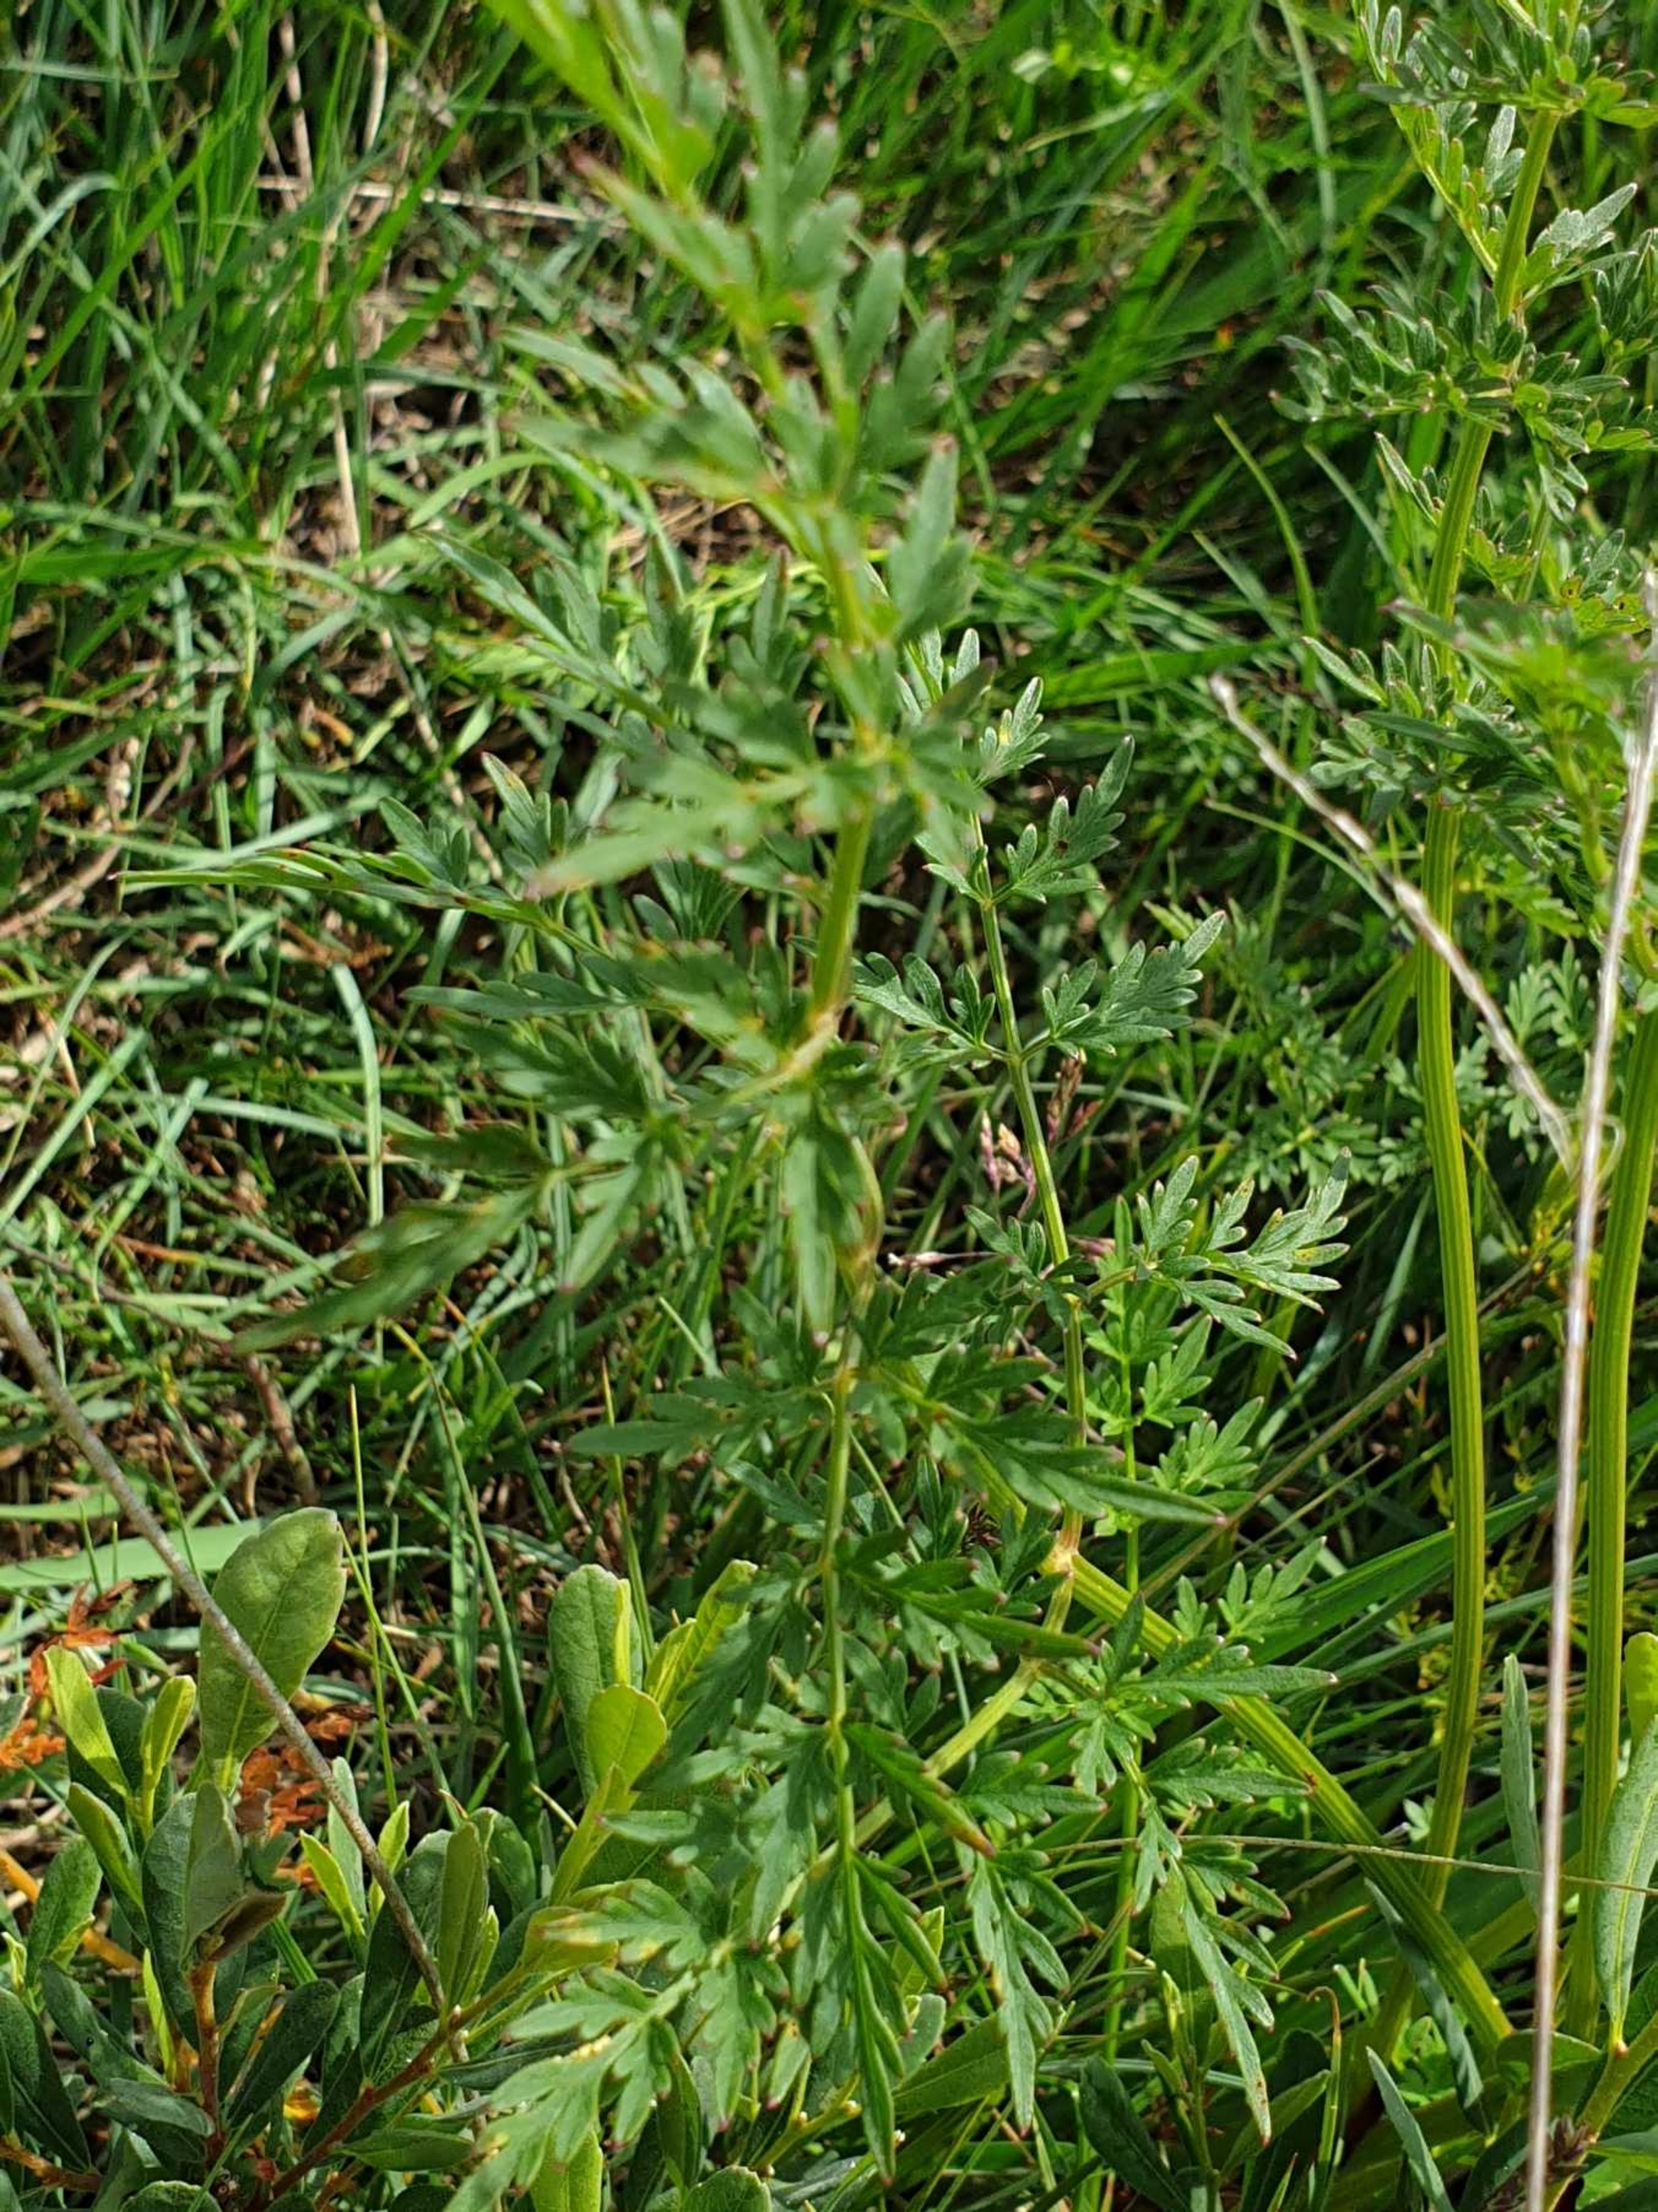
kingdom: Plantae
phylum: Tracheophyta
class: Magnoliopsida
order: Apiales
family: Apiaceae
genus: Thysselinum
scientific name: Thysselinum palustre
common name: Kær-svovlrod
